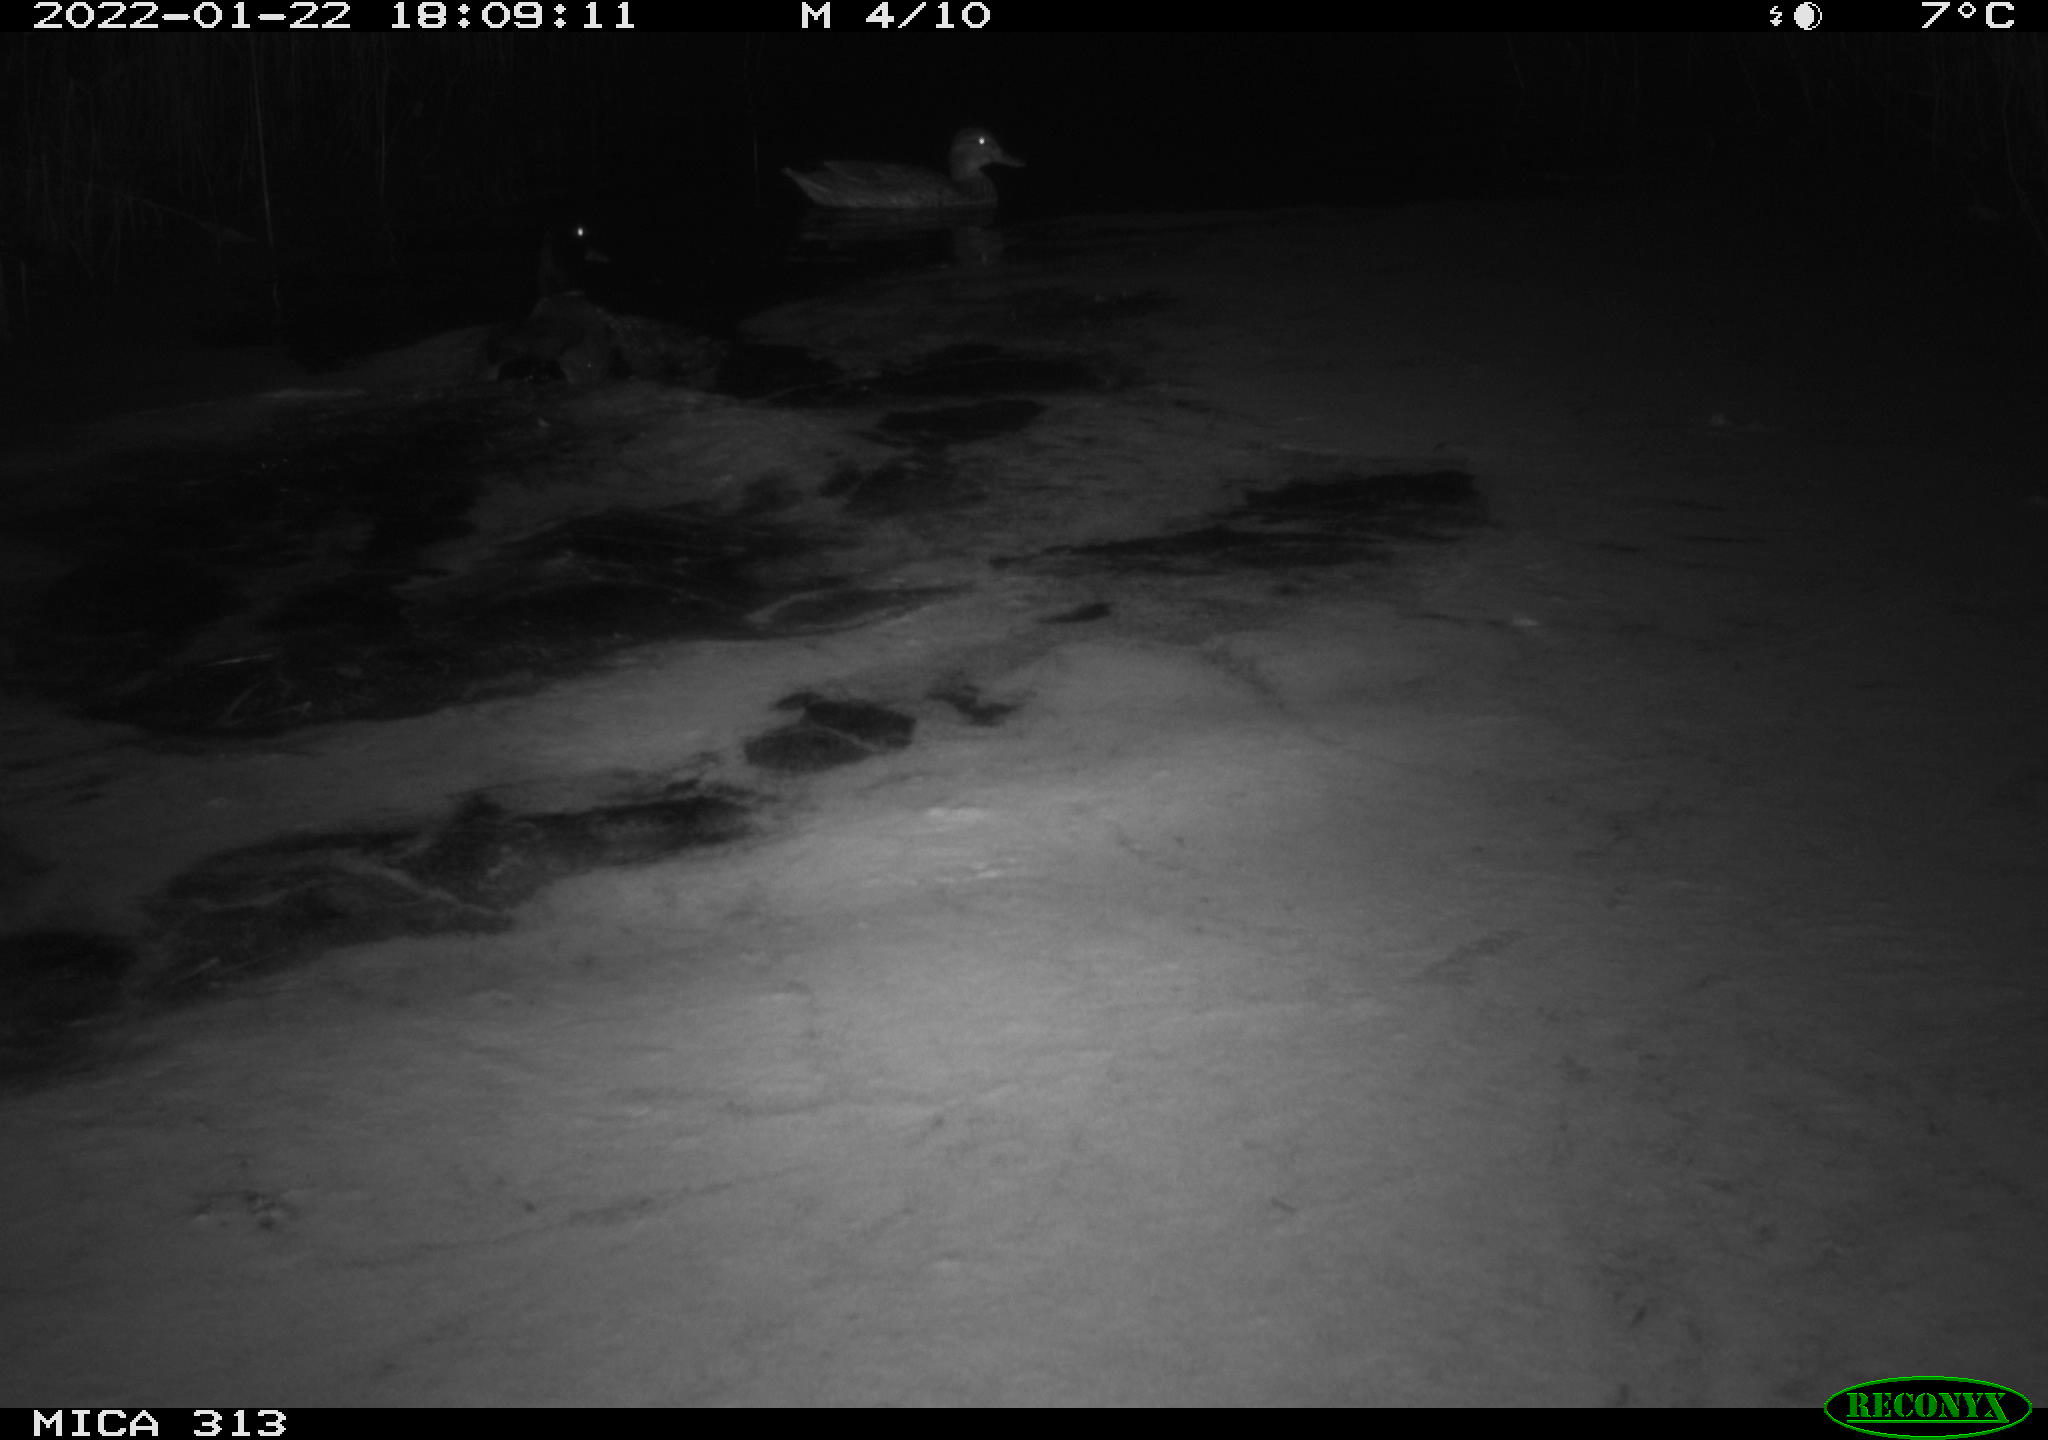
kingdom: Animalia
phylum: Chordata
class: Aves
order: Anseriformes
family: Anatidae
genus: Anas
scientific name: Anas
